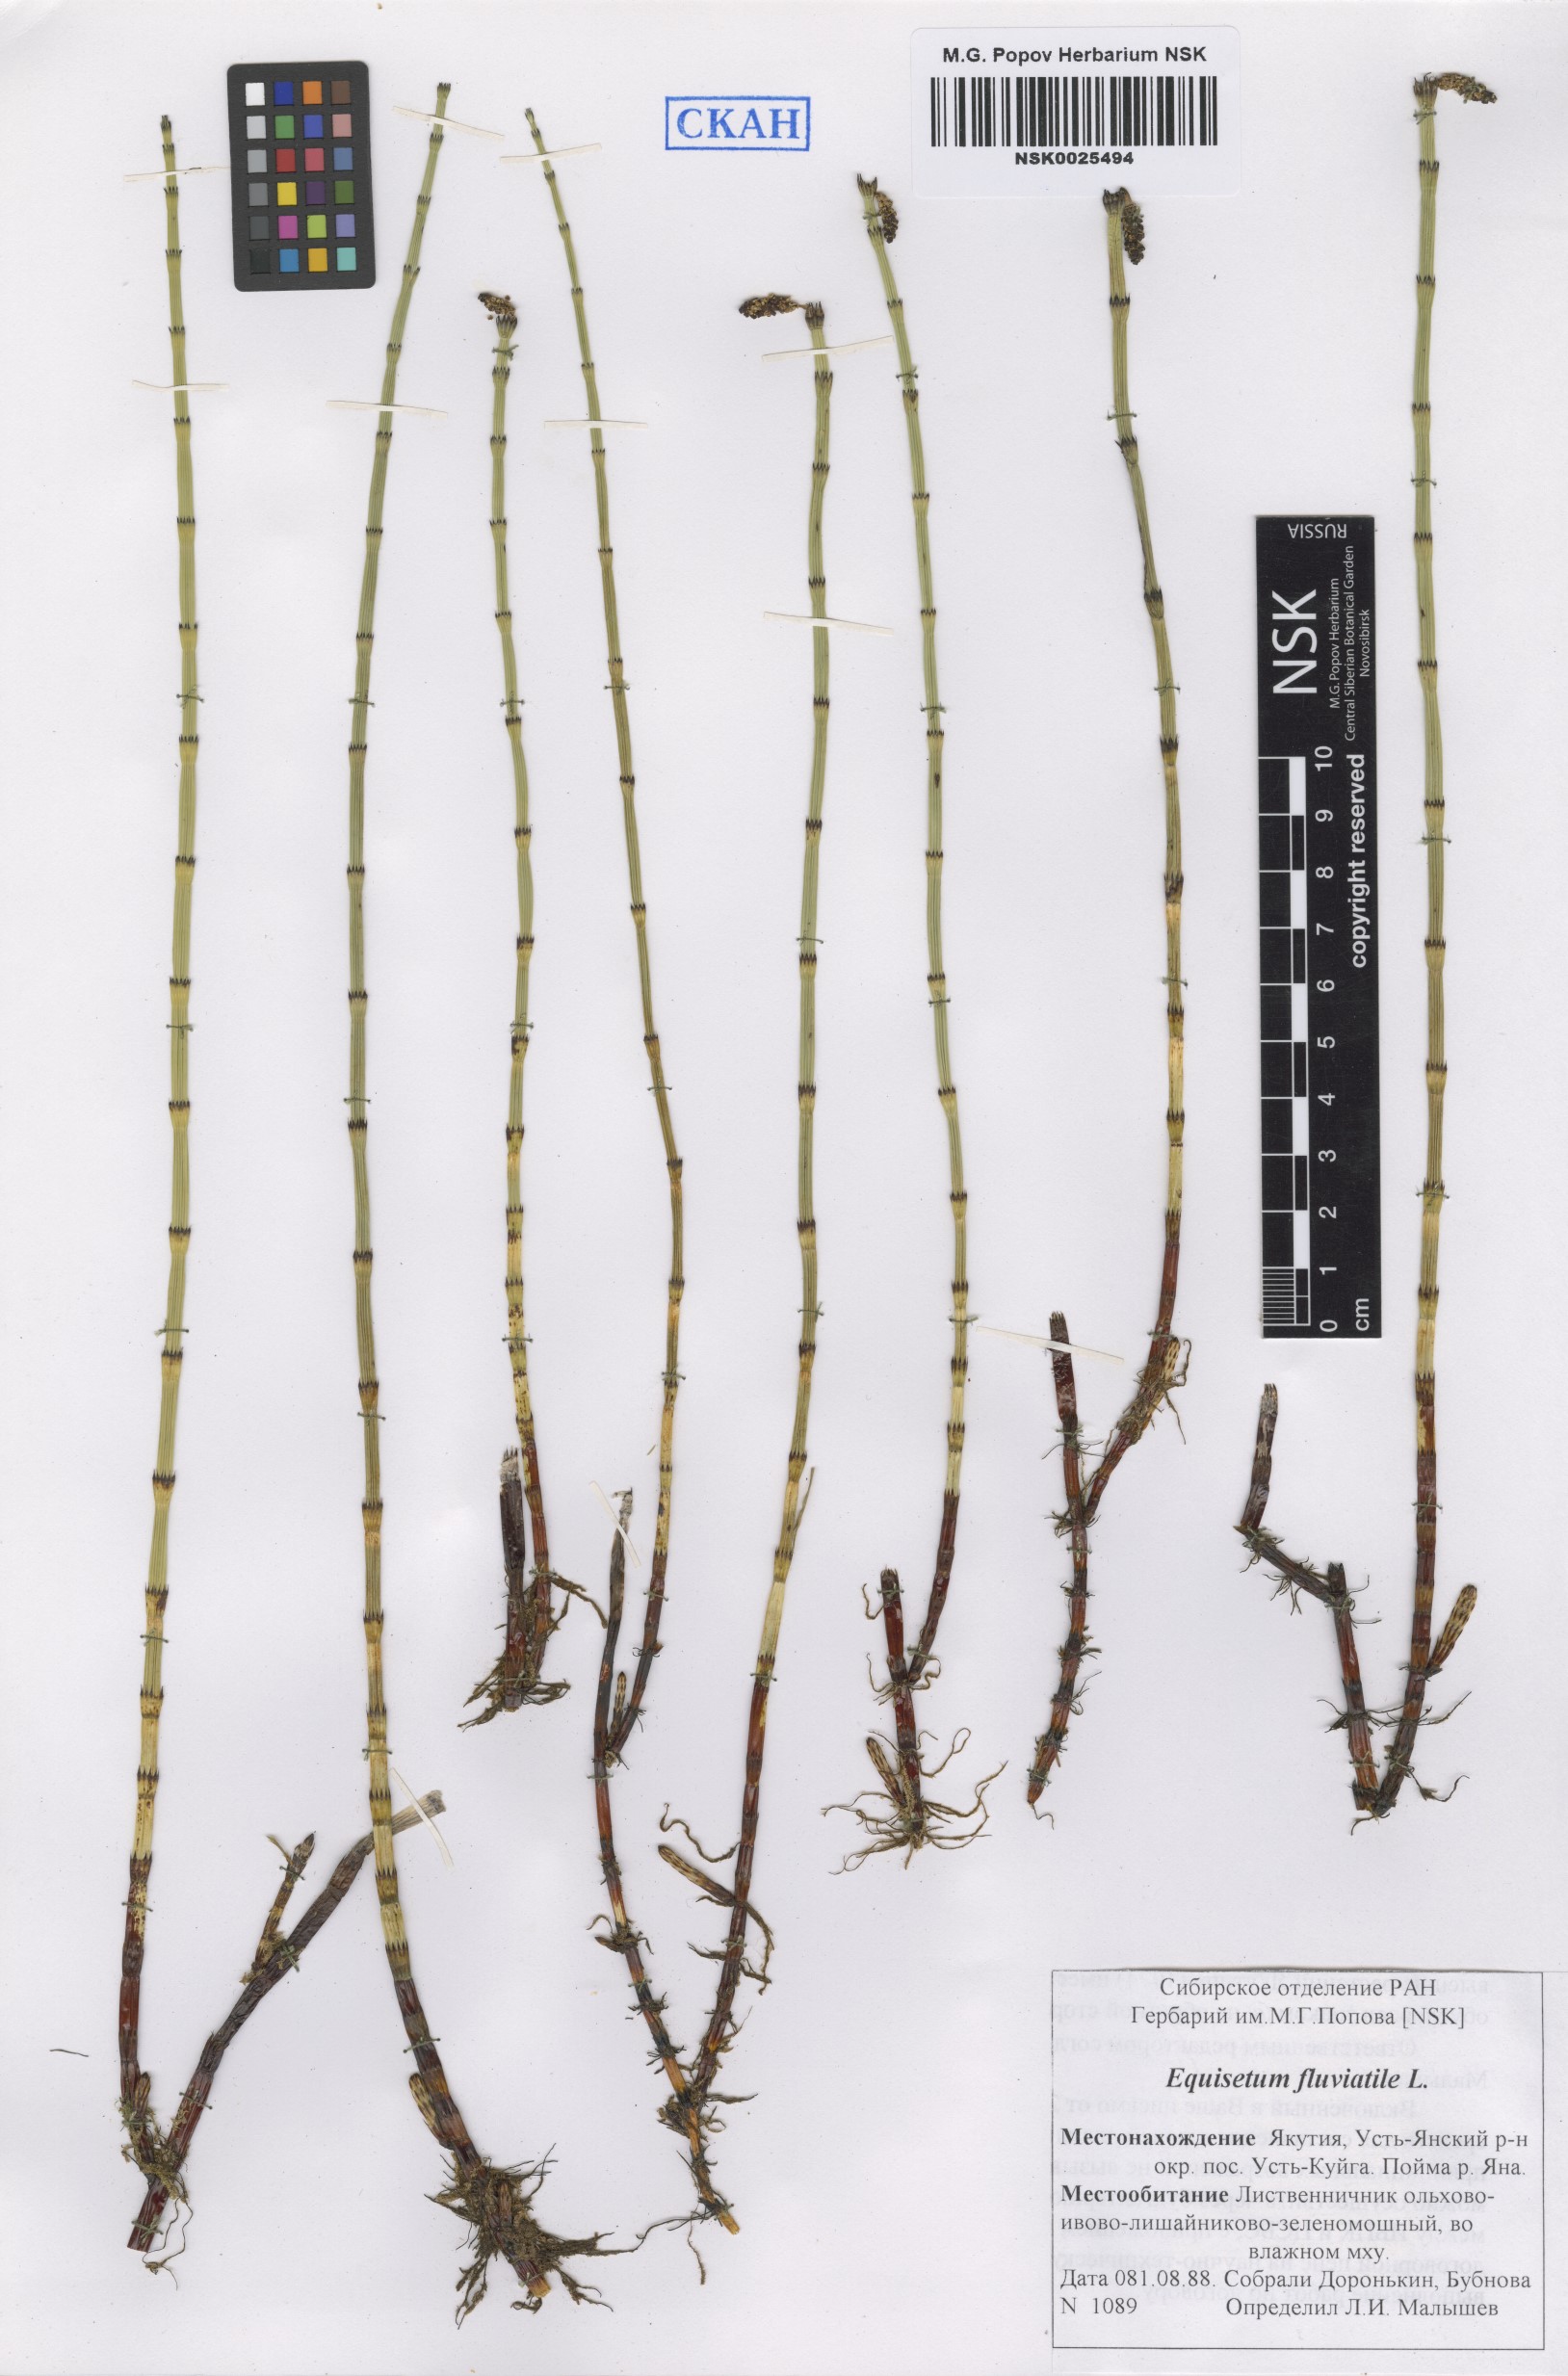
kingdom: Plantae
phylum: Tracheophyta
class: Polypodiopsida
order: Equisetales
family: Equisetaceae
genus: Equisetum
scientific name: Equisetum fluviatile
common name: Water horsetail
